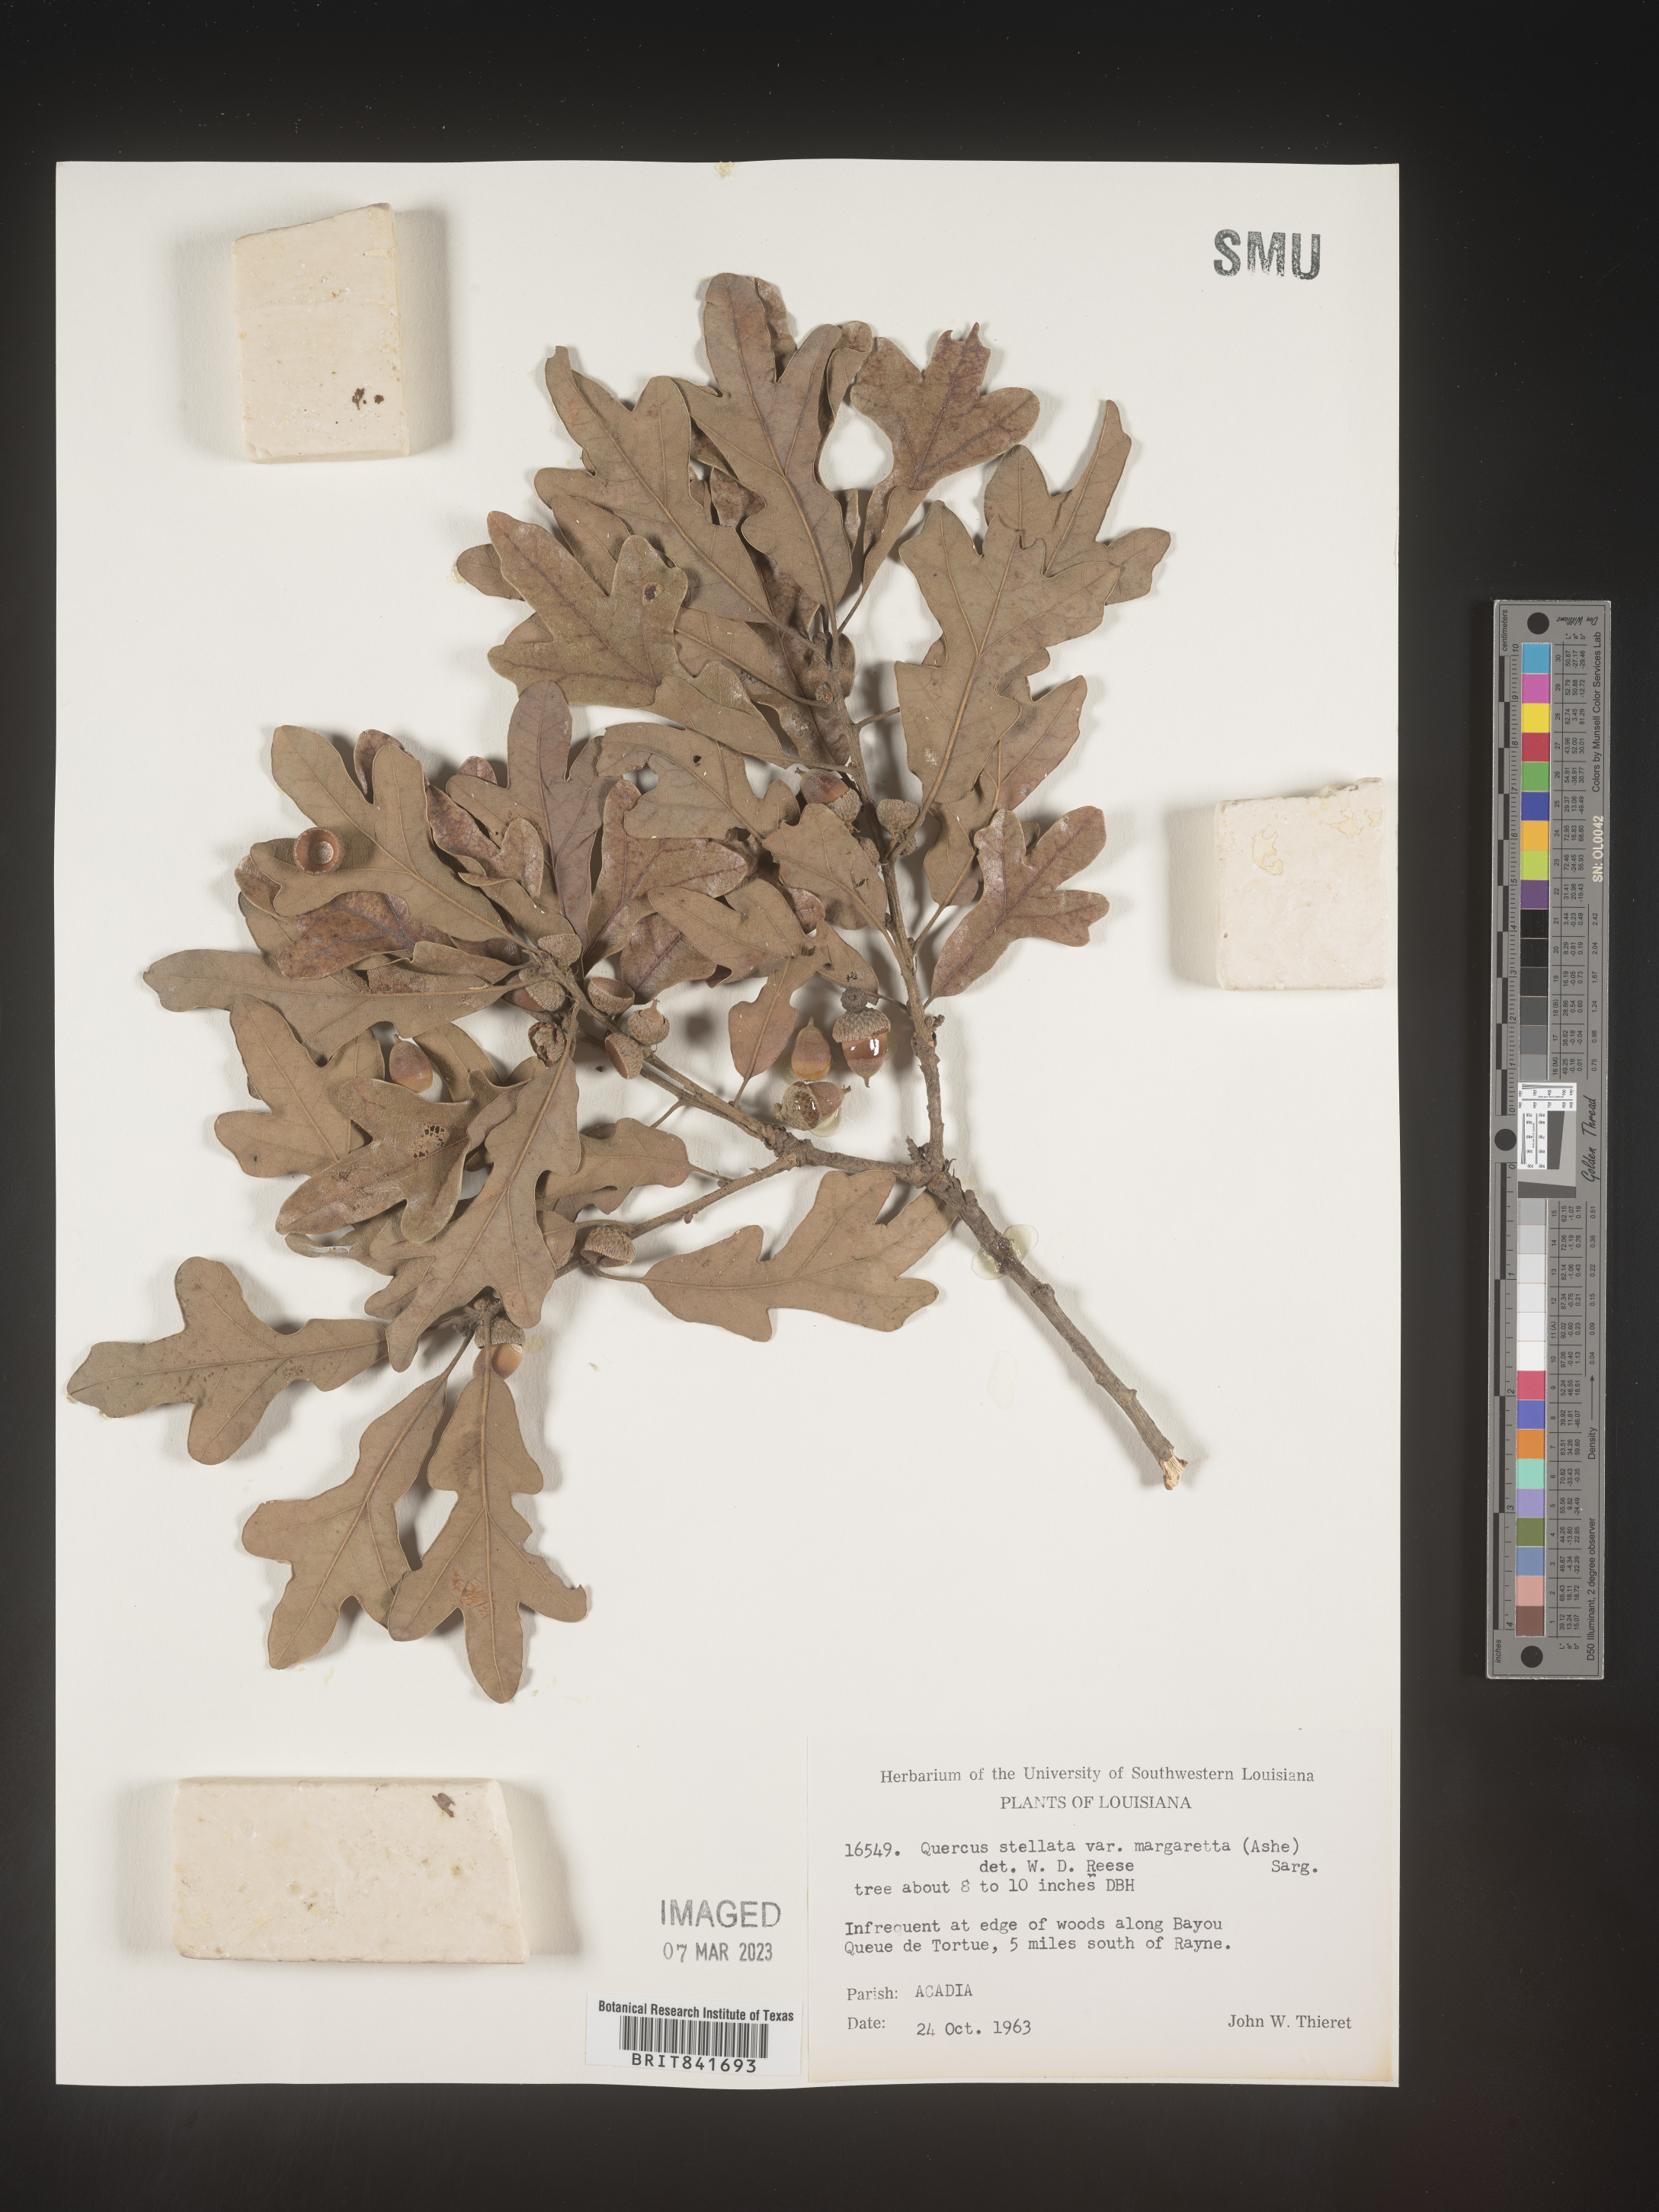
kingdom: Plantae
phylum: Tracheophyta
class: Magnoliopsida
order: Fagales
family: Fagaceae
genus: Quercus
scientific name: Quercus stellata
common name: Post oak
